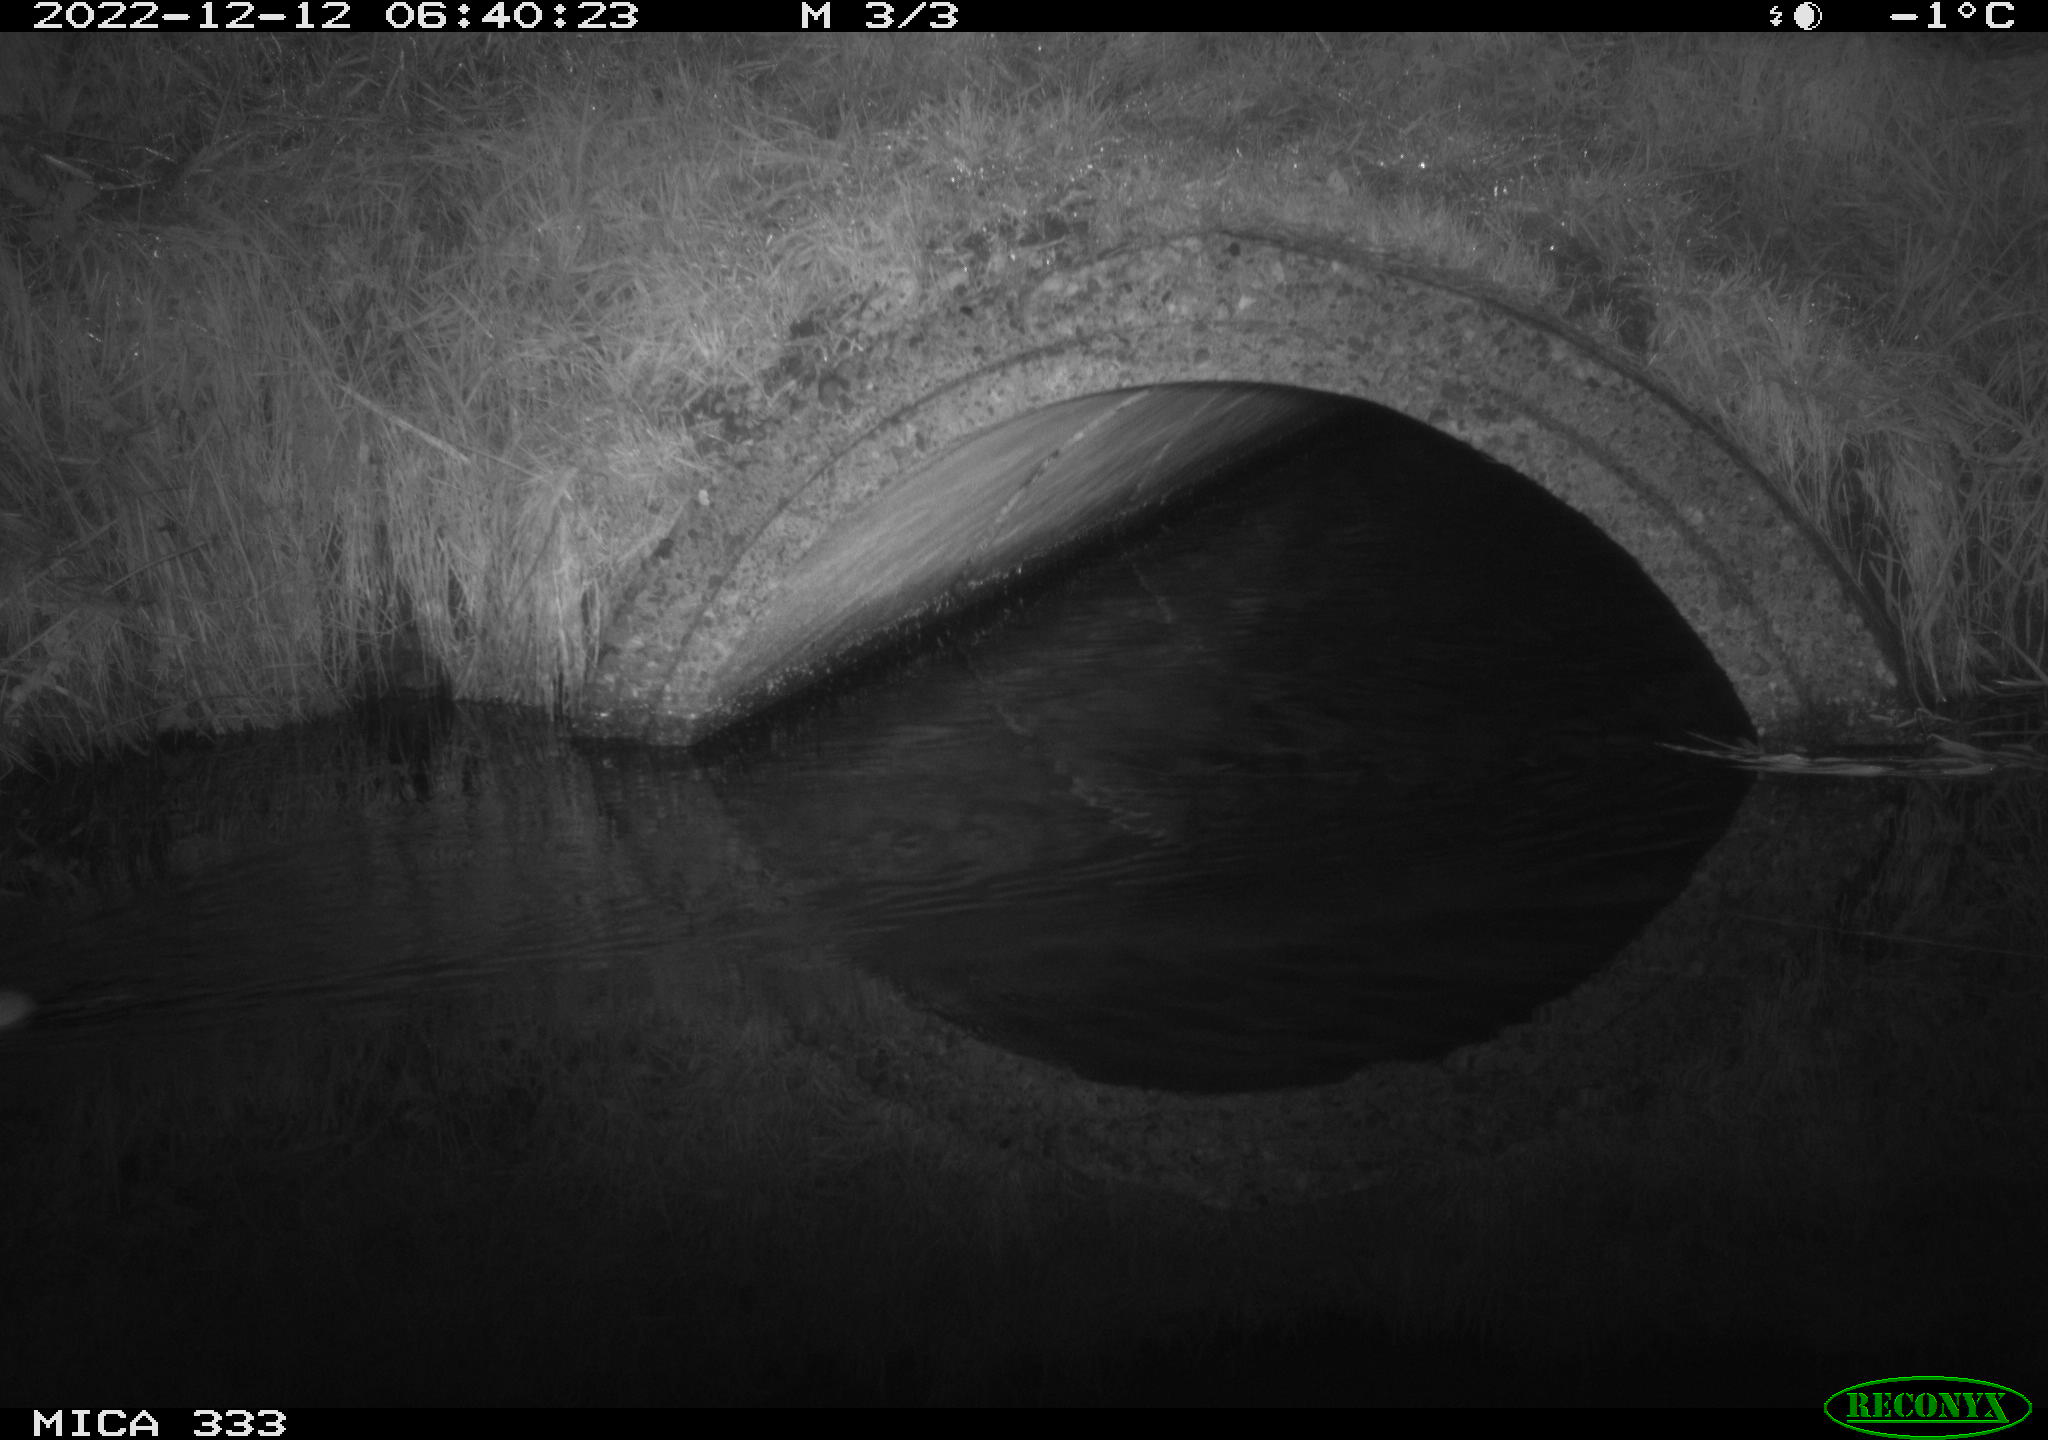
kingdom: Animalia
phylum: Chordata
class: Mammalia
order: Rodentia
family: Muridae
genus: Rattus
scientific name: Rattus norvegicus
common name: Brown rat
